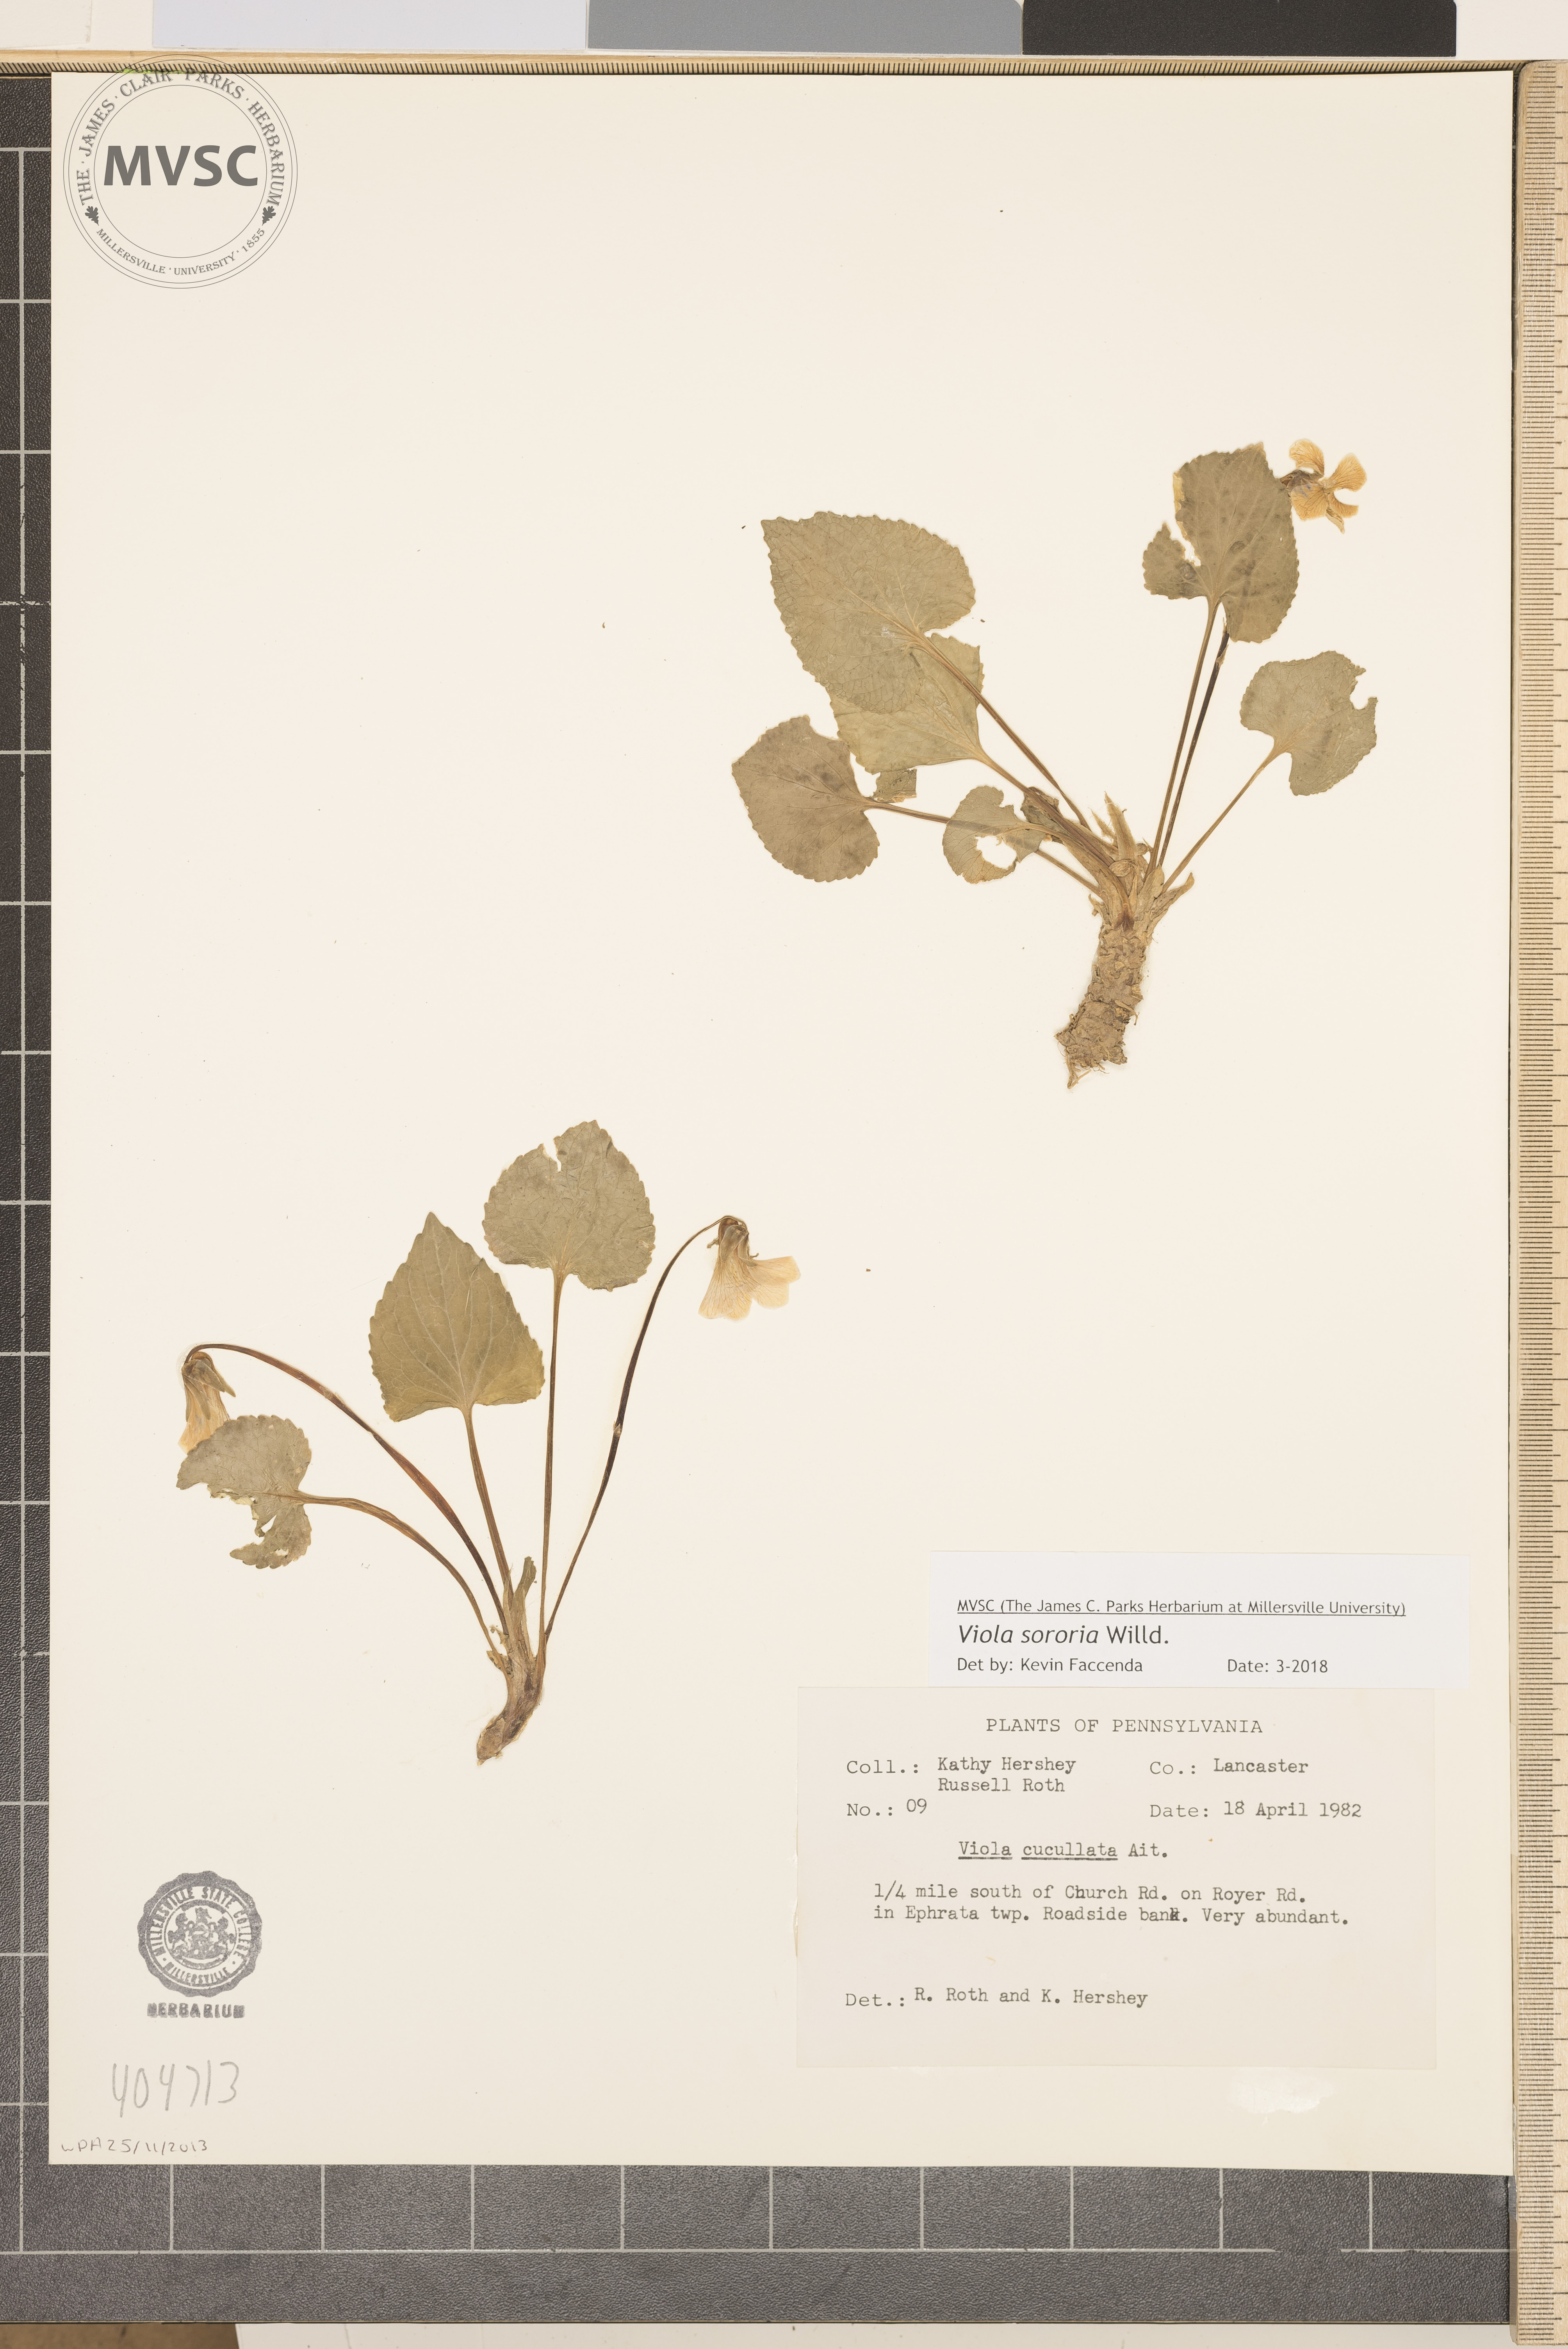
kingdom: Plantae
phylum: Tracheophyta
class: Magnoliopsida
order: Malpighiales
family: Violaceae
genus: Viola
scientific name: Viola sororia
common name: Dooryard violet
